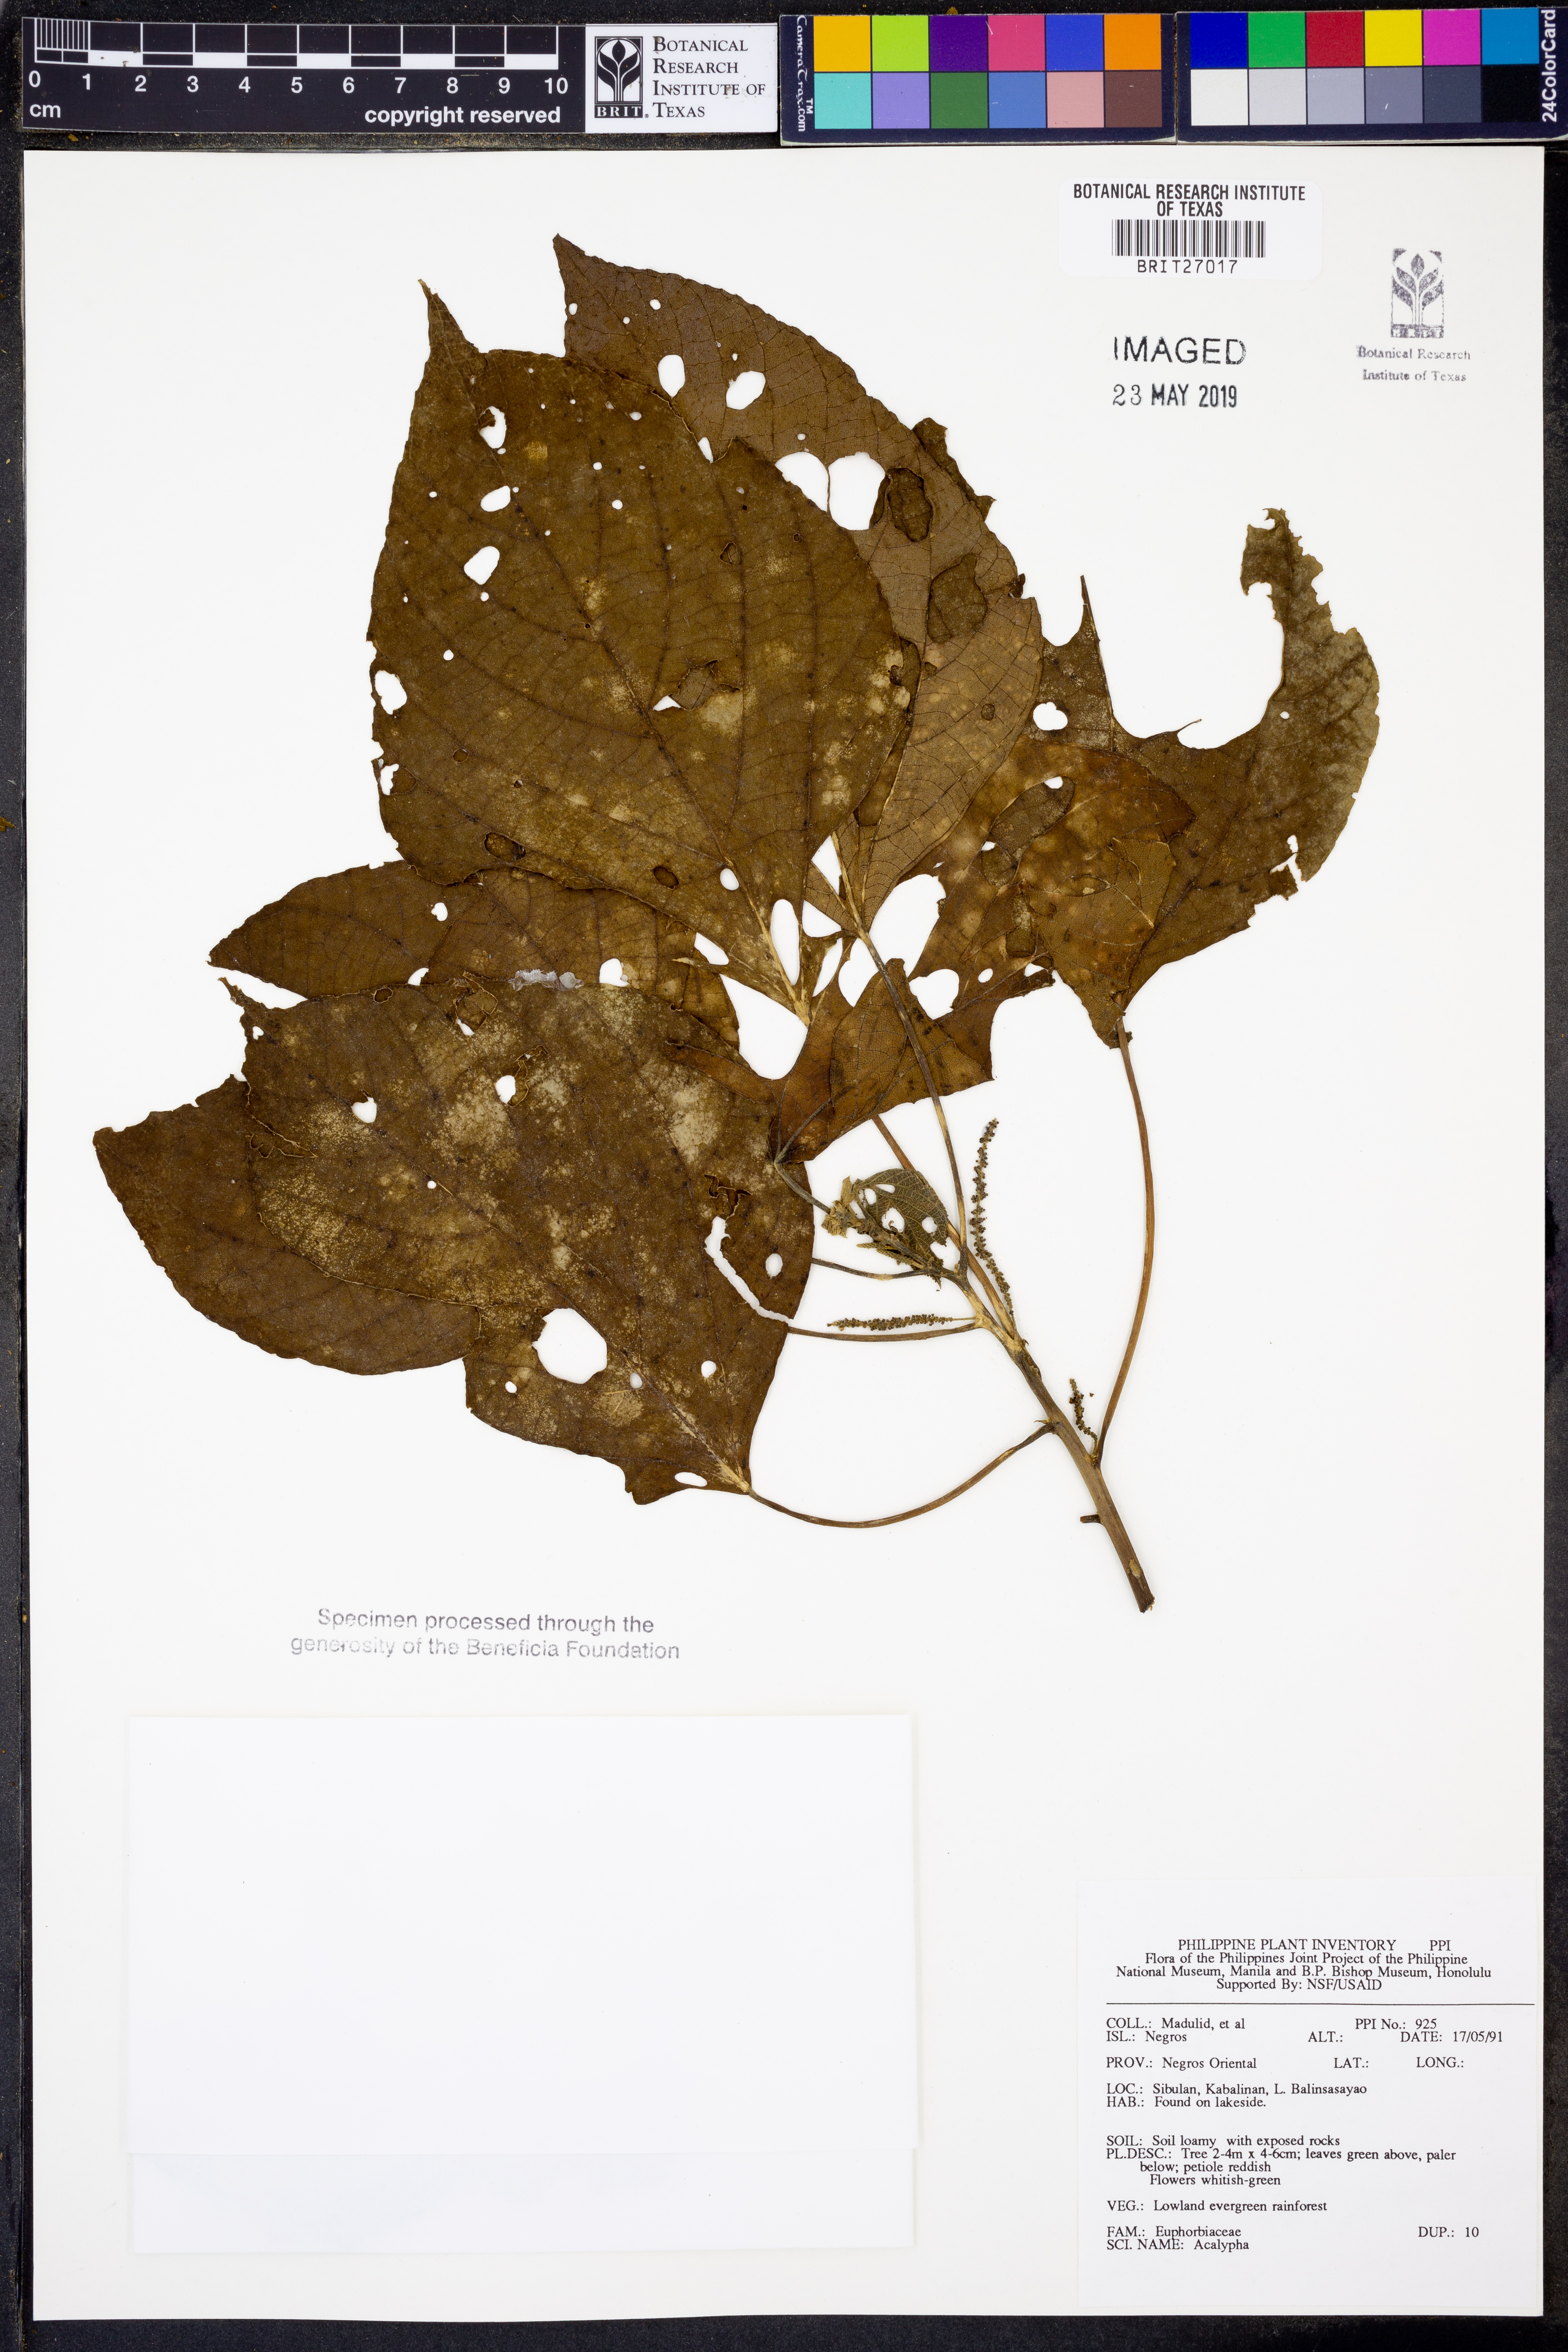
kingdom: Plantae
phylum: Tracheophyta
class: Magnoliopsida
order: Malpighiales
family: Euphorbiaceae
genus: Acalypha
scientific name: Acalypha
